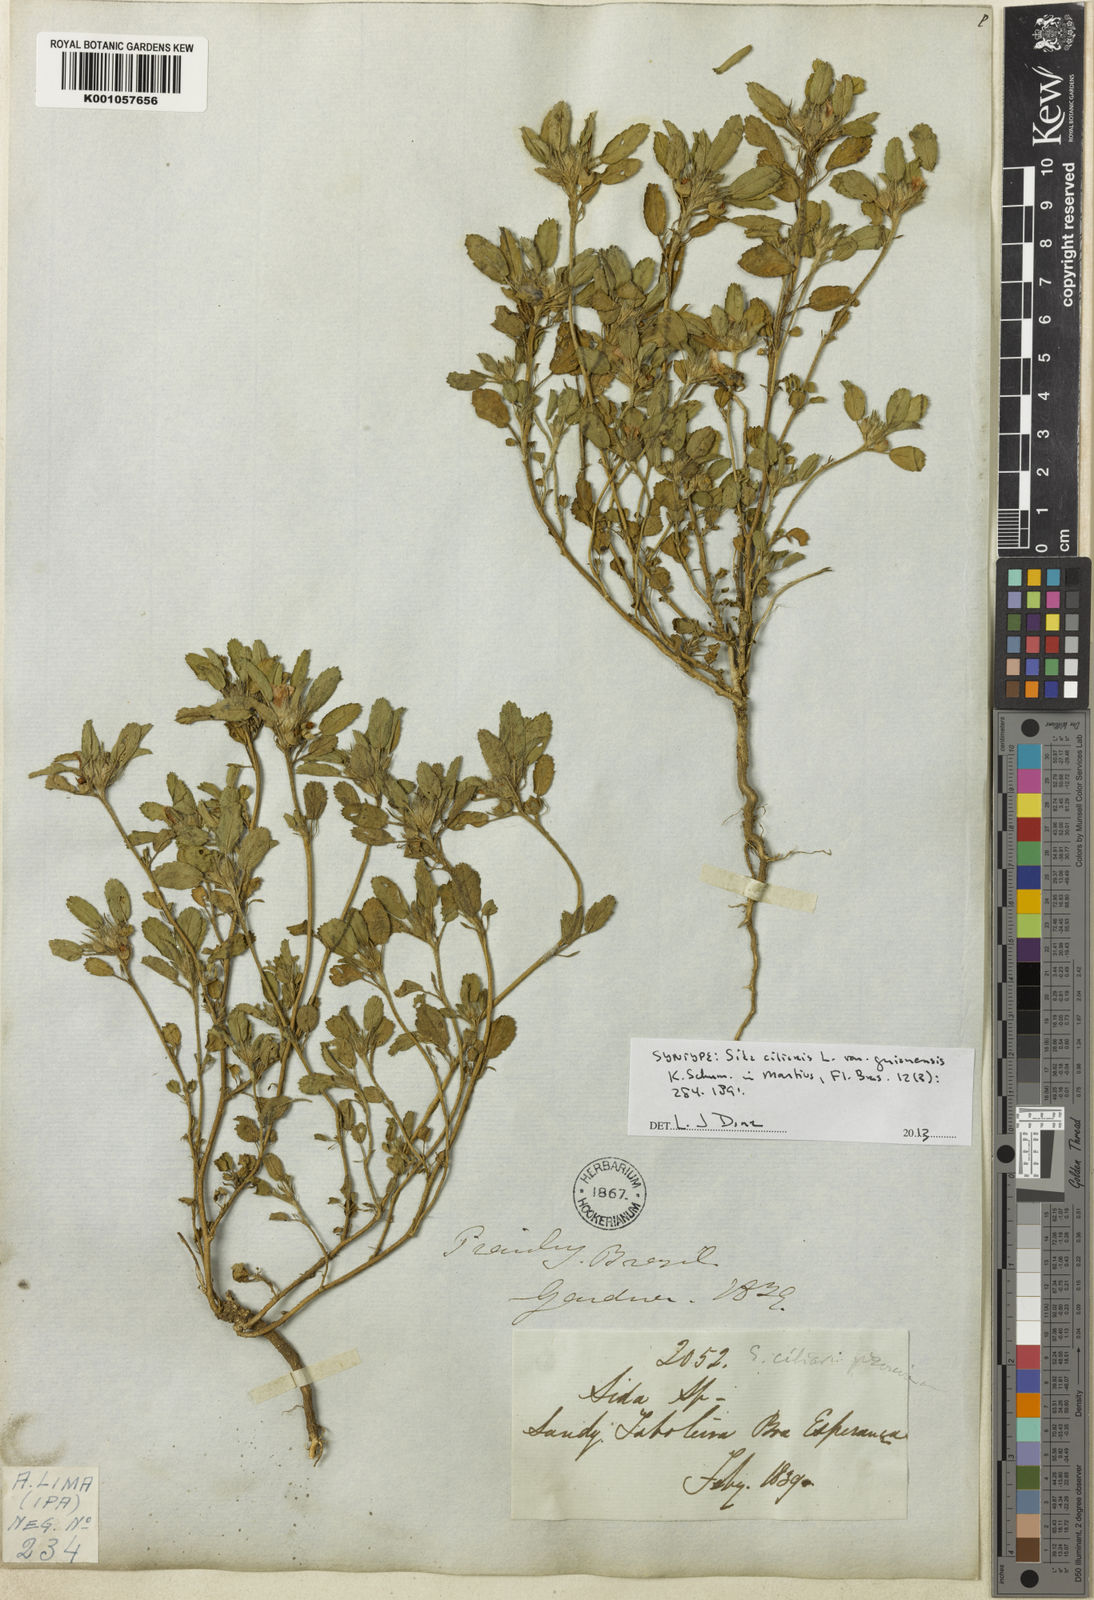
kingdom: Plantae
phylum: Tracheophyta
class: Magnoliopsida
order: Malvales
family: Malvaceae
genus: Sida
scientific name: Sida ciliaris
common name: Bracted fanpetals
